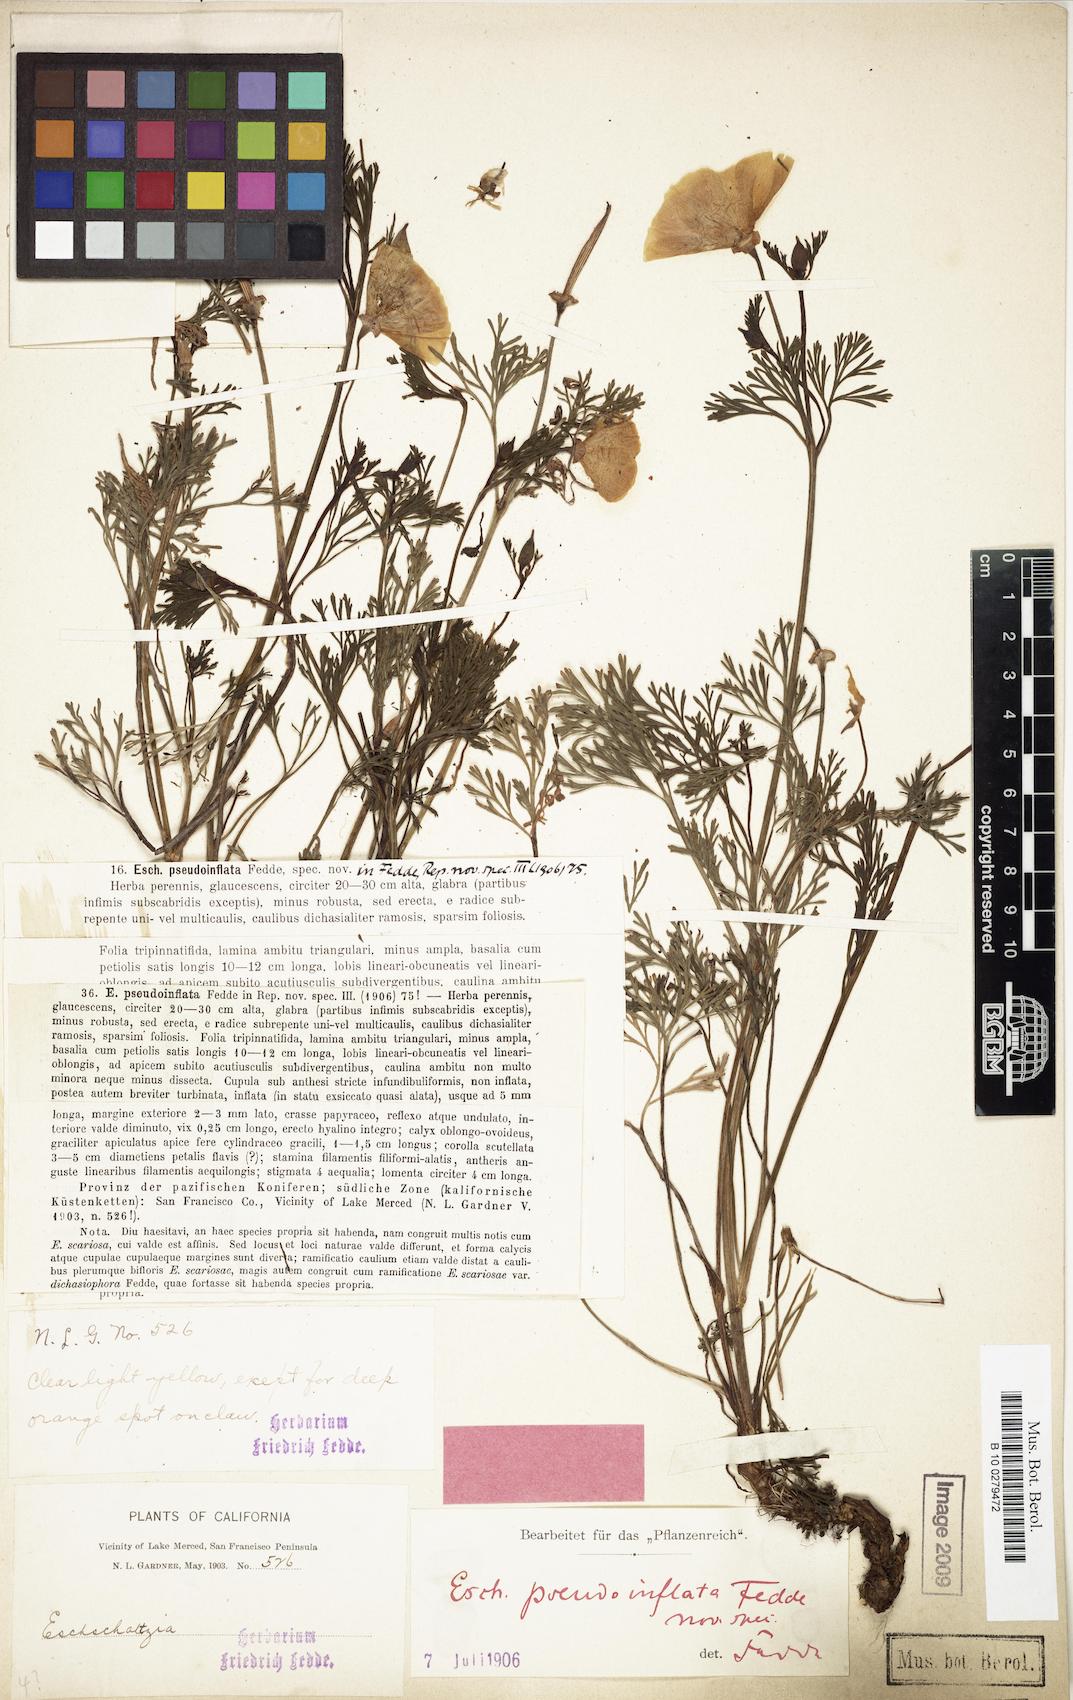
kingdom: Plantae
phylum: Tracheophyta
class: Magnoliopsida
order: Ranunculales
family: Papaveraceae
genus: Eschscholzia
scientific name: Eschscholzia californica
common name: California poppy
